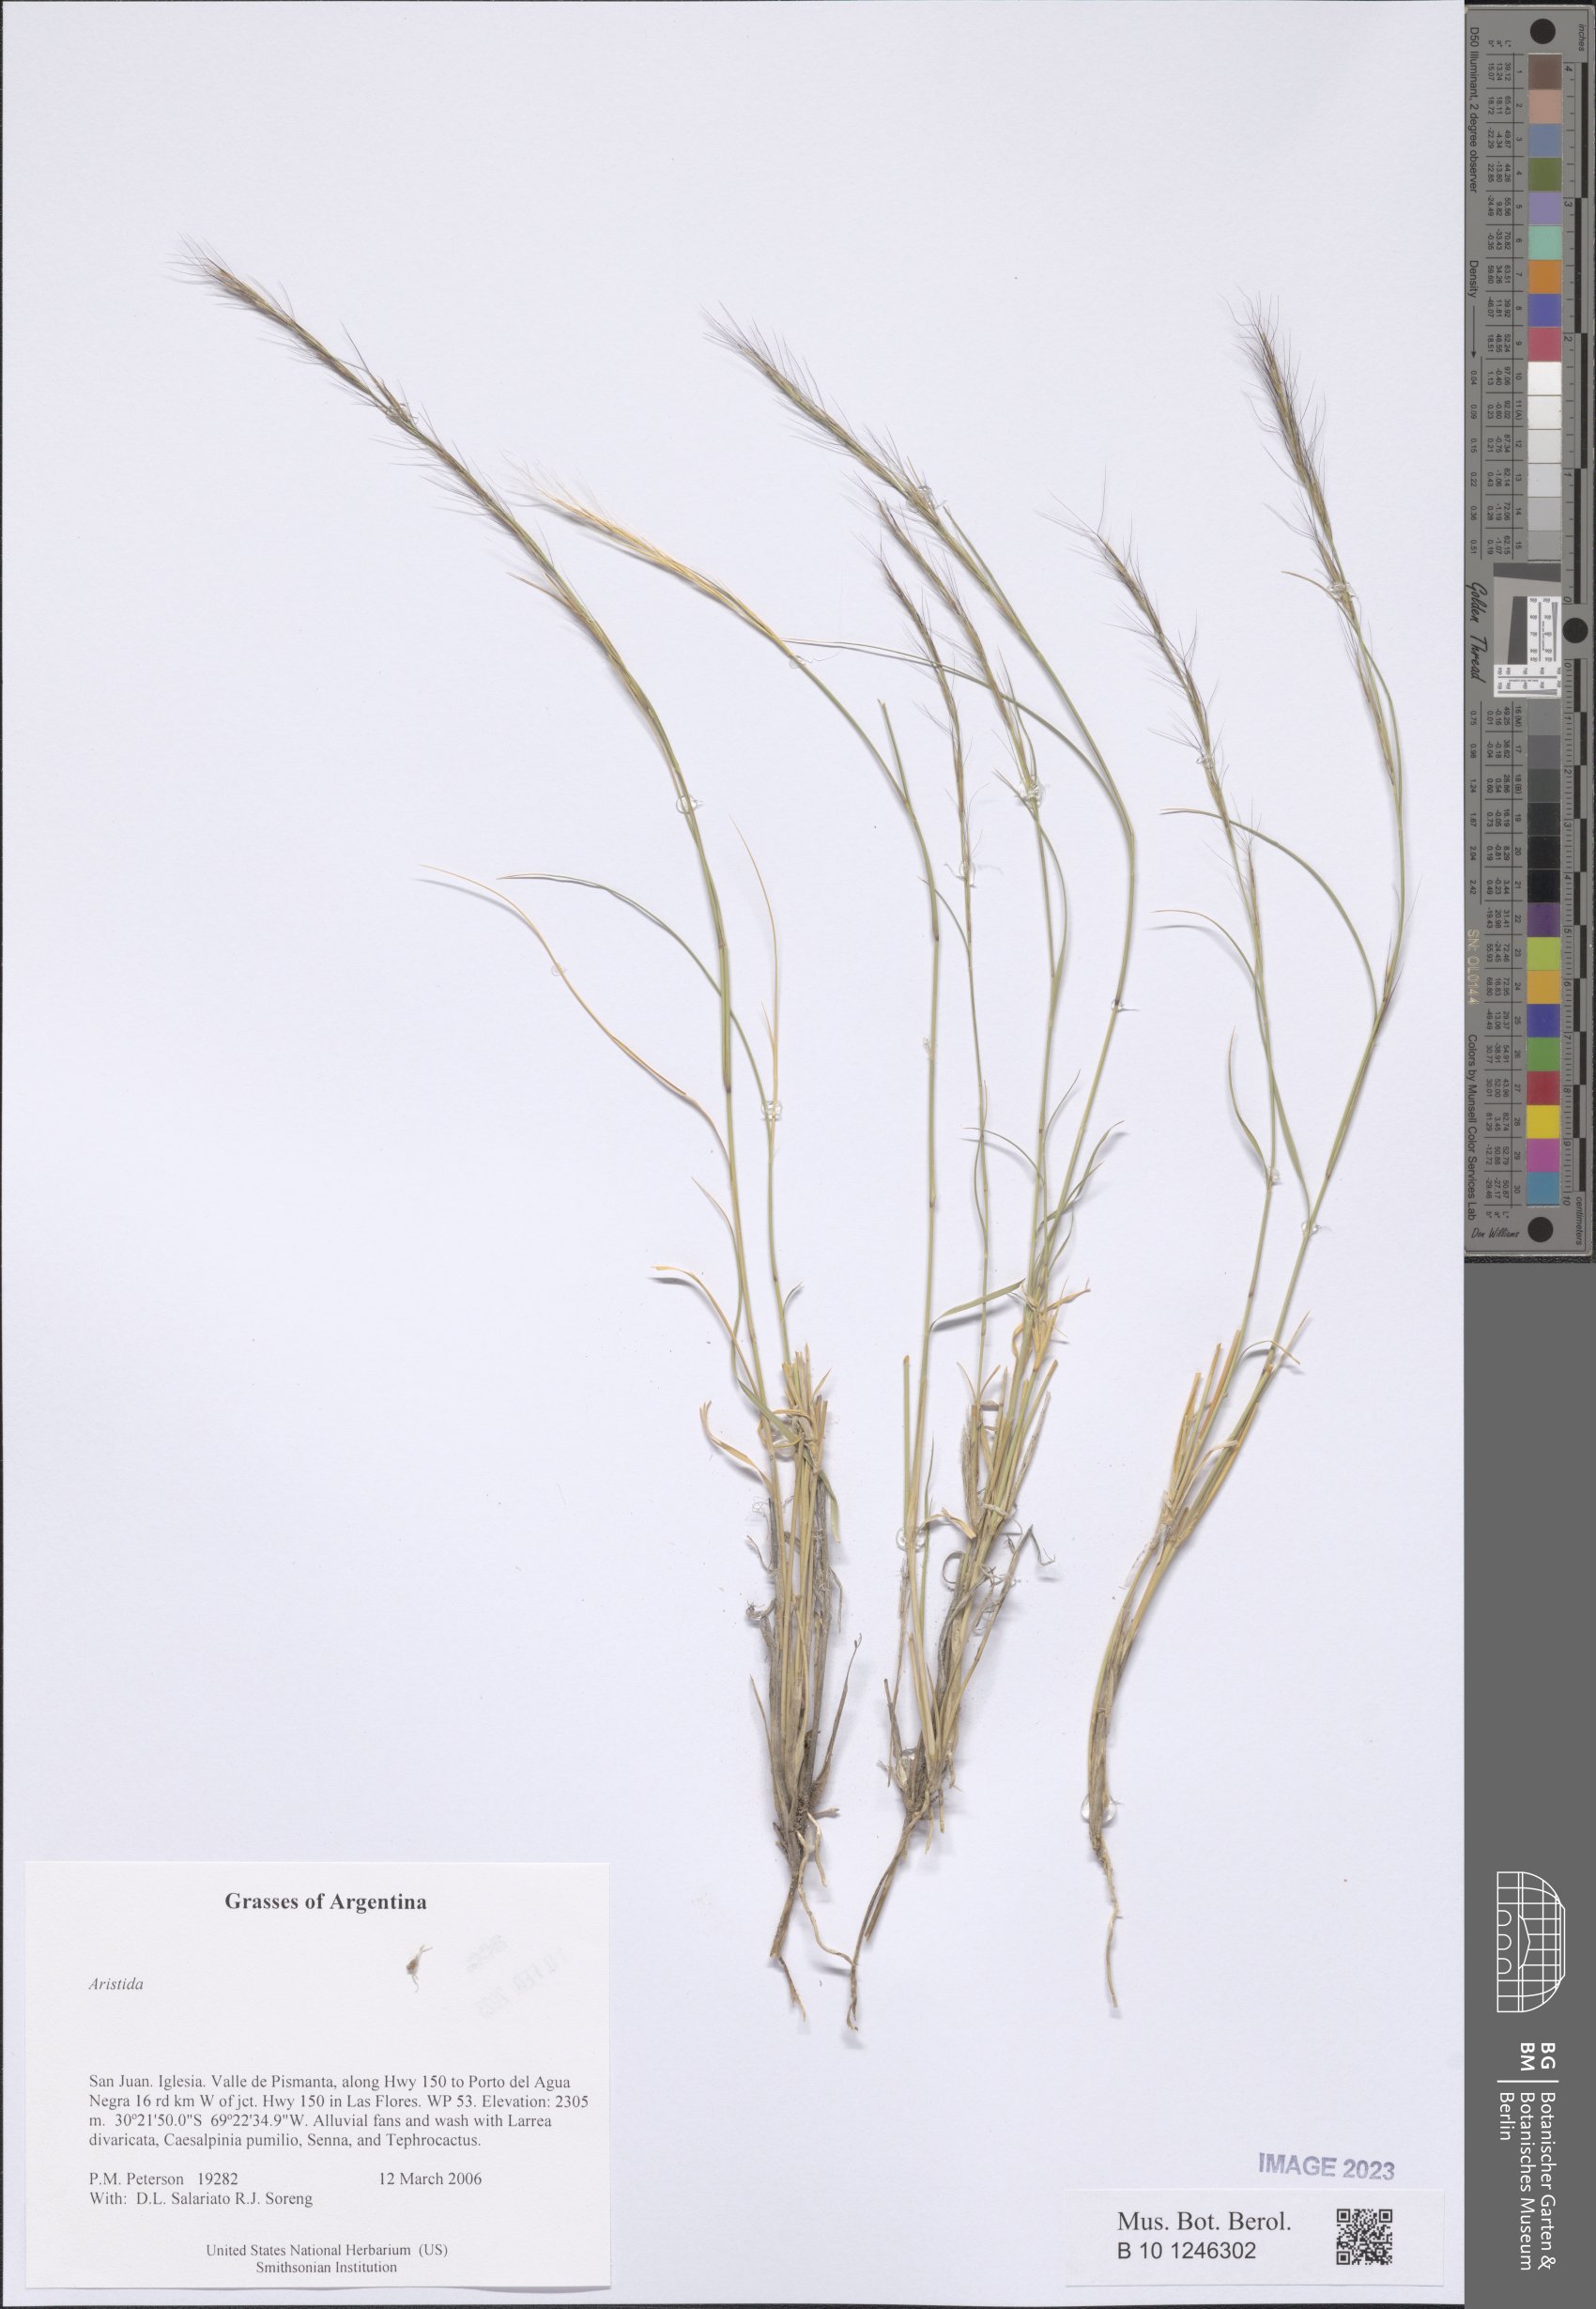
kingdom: Plantae
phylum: Tracheophyta
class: Liliopsida
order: Poales
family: Poaceae
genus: Aristida
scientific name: Aristida
